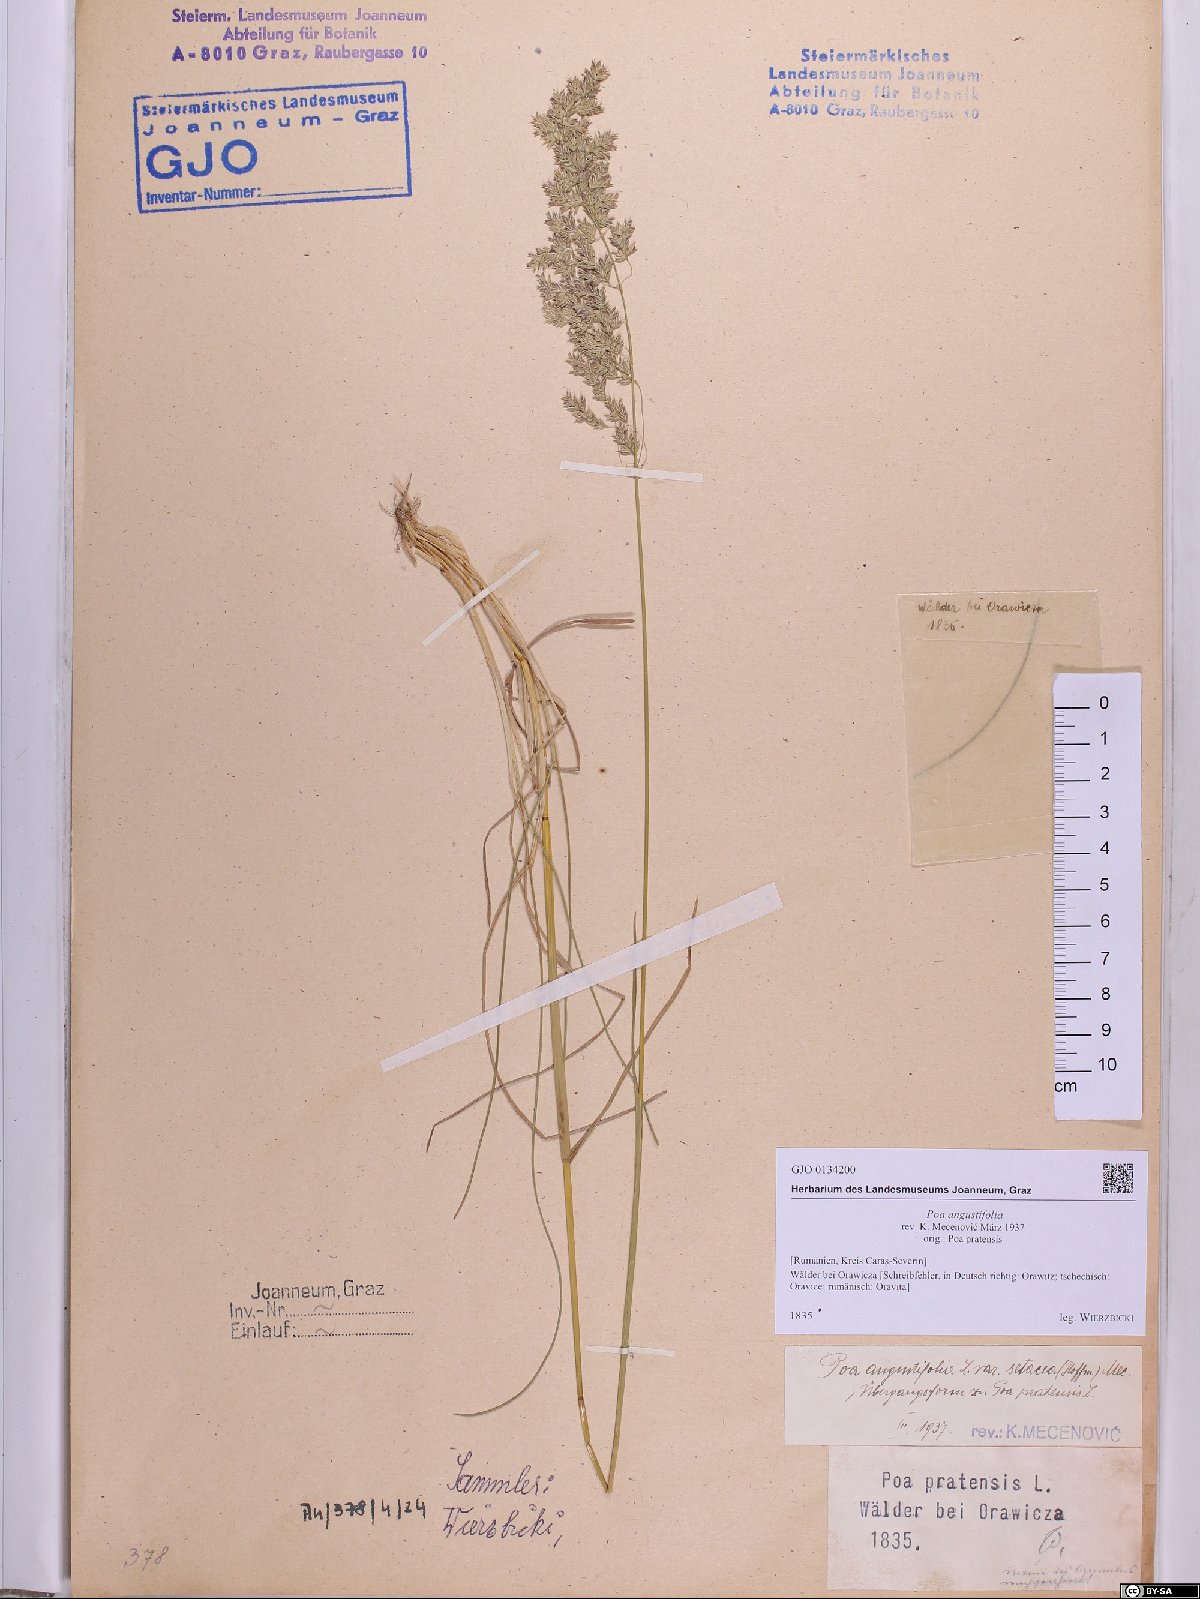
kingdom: Plantae
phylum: Tracheophyta
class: Liliopsida
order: Poales
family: Poaceae
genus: Poa
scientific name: Poa angustifolia
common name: Narrow-leaved meadow-grass
